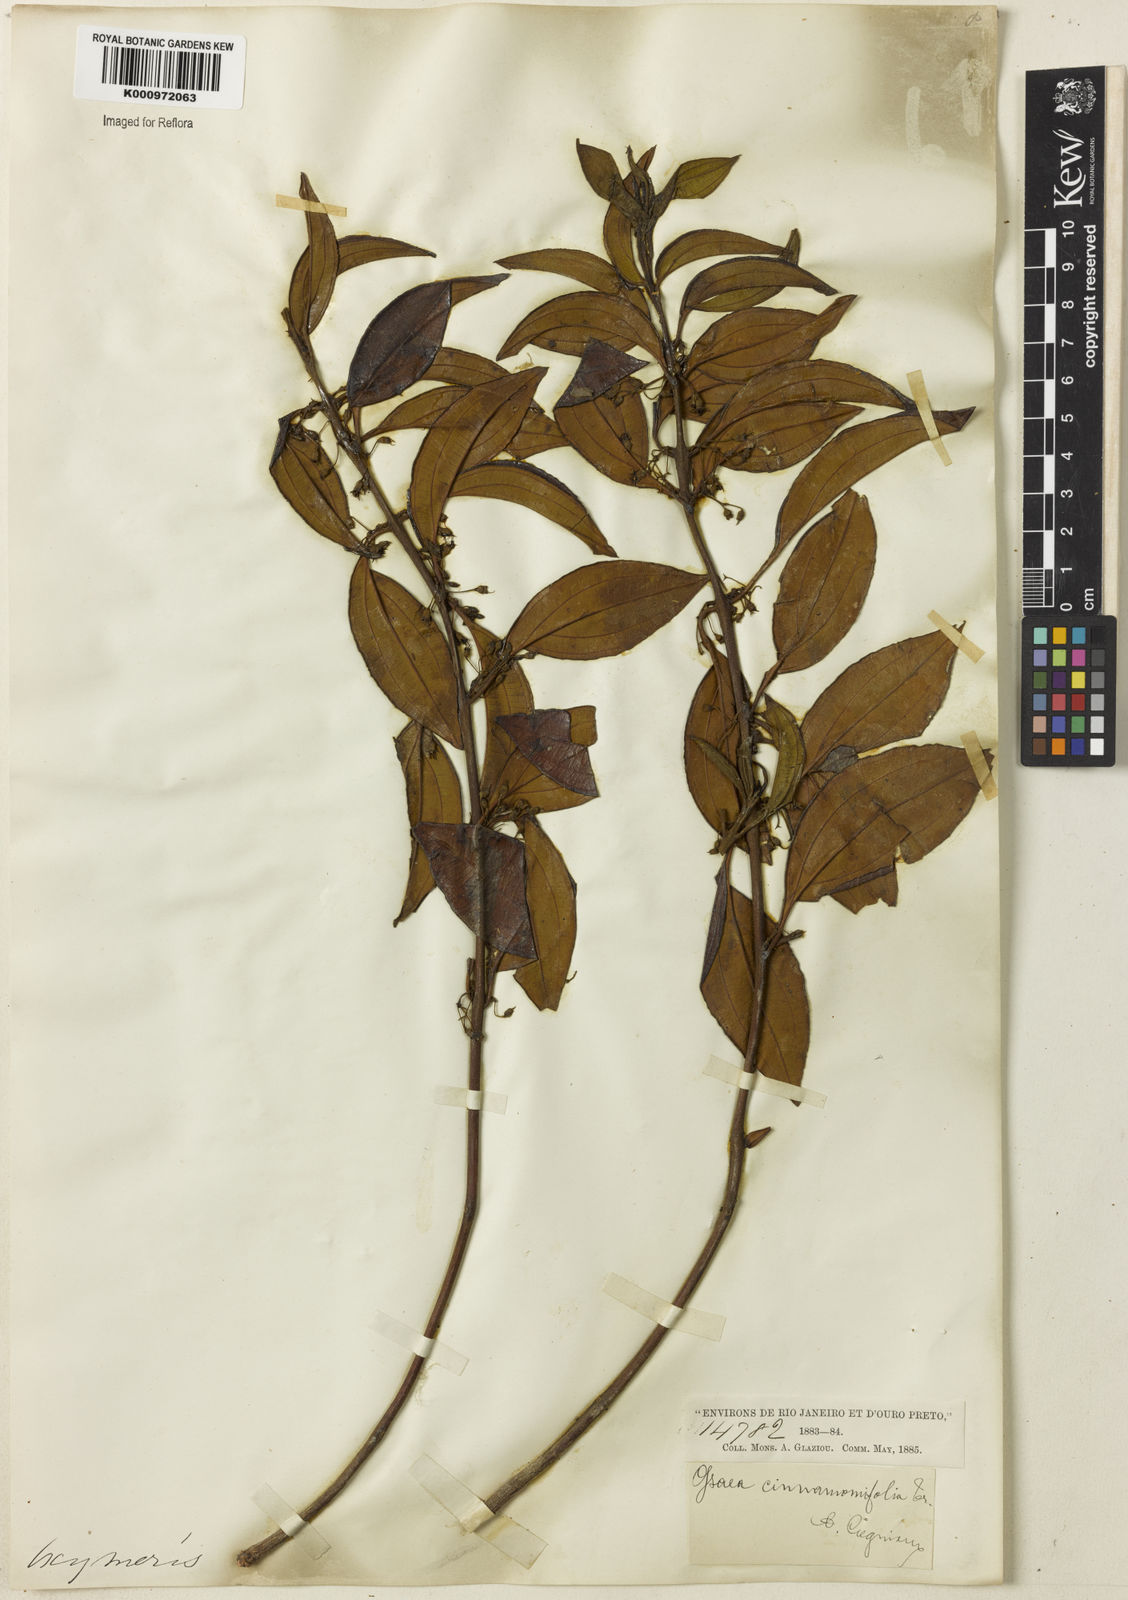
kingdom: Plantae
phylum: Tracheophyta
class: Magnoliopsida
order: Myrtales
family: Melastomataceae
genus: Miconia
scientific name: Miconia leacinnamomifolia
